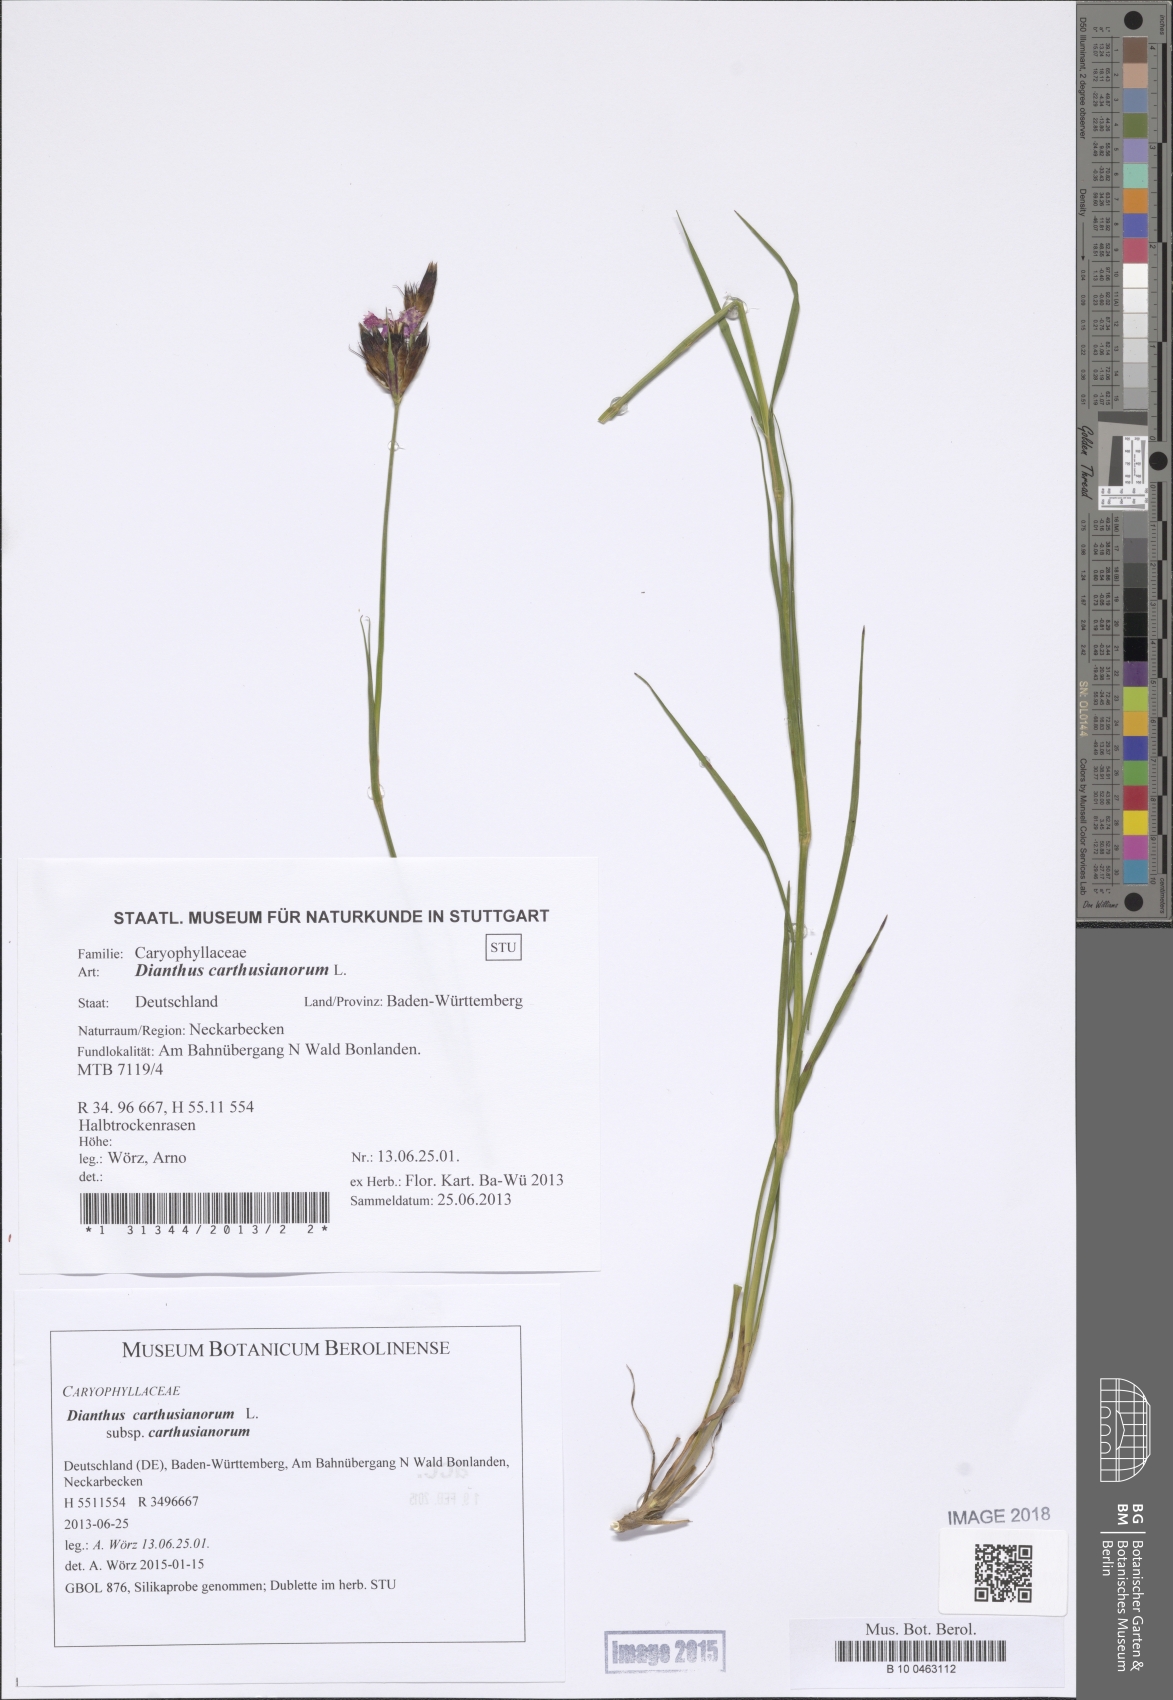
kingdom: Plantae
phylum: Tracheophyta
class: Magnoliopsida
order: Caryophyllales
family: Caryophyllaceae
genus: Dianthus
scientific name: Dianthus carthusianorum
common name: Carthusian pink
